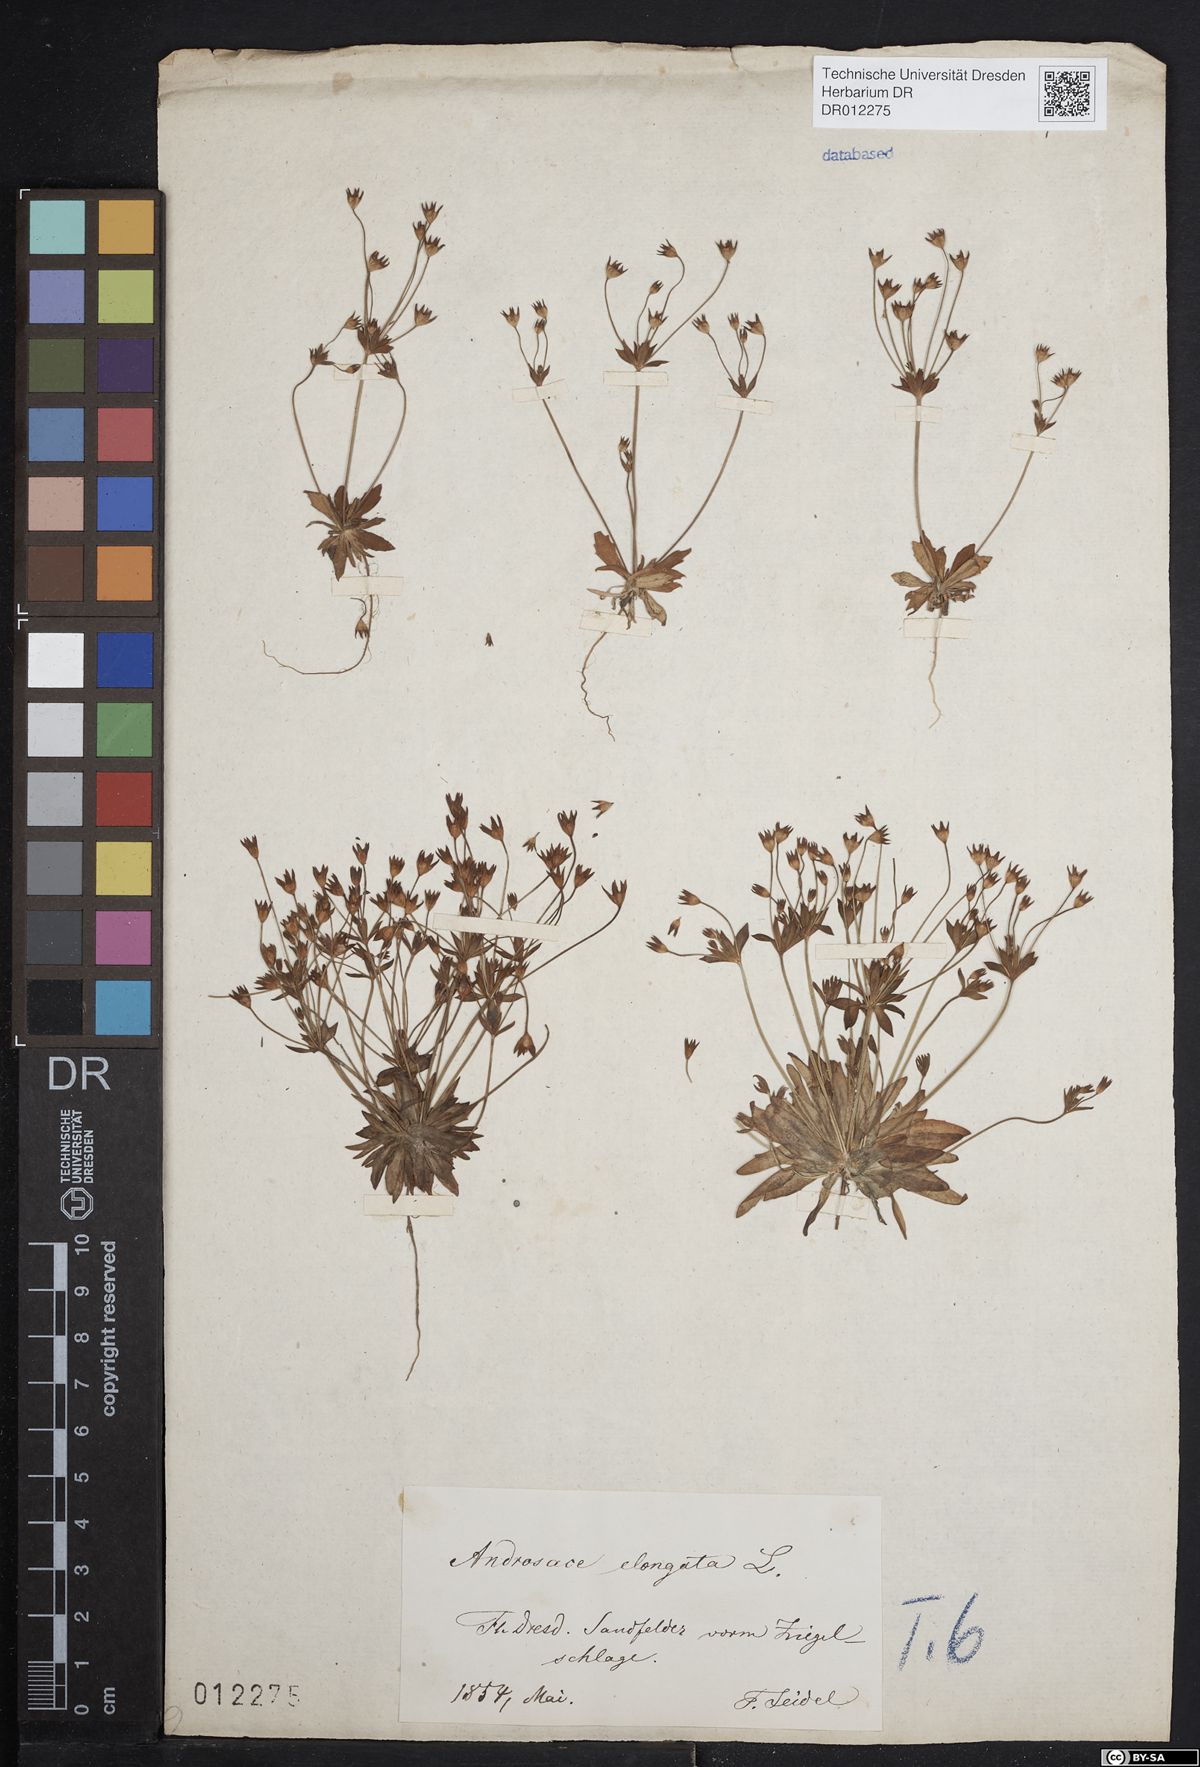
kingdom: Plantae
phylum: Tracheophyta
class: Magnoliopsida
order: Ericales
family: Primulaceae
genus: Androsace
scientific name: Androsace elongata
